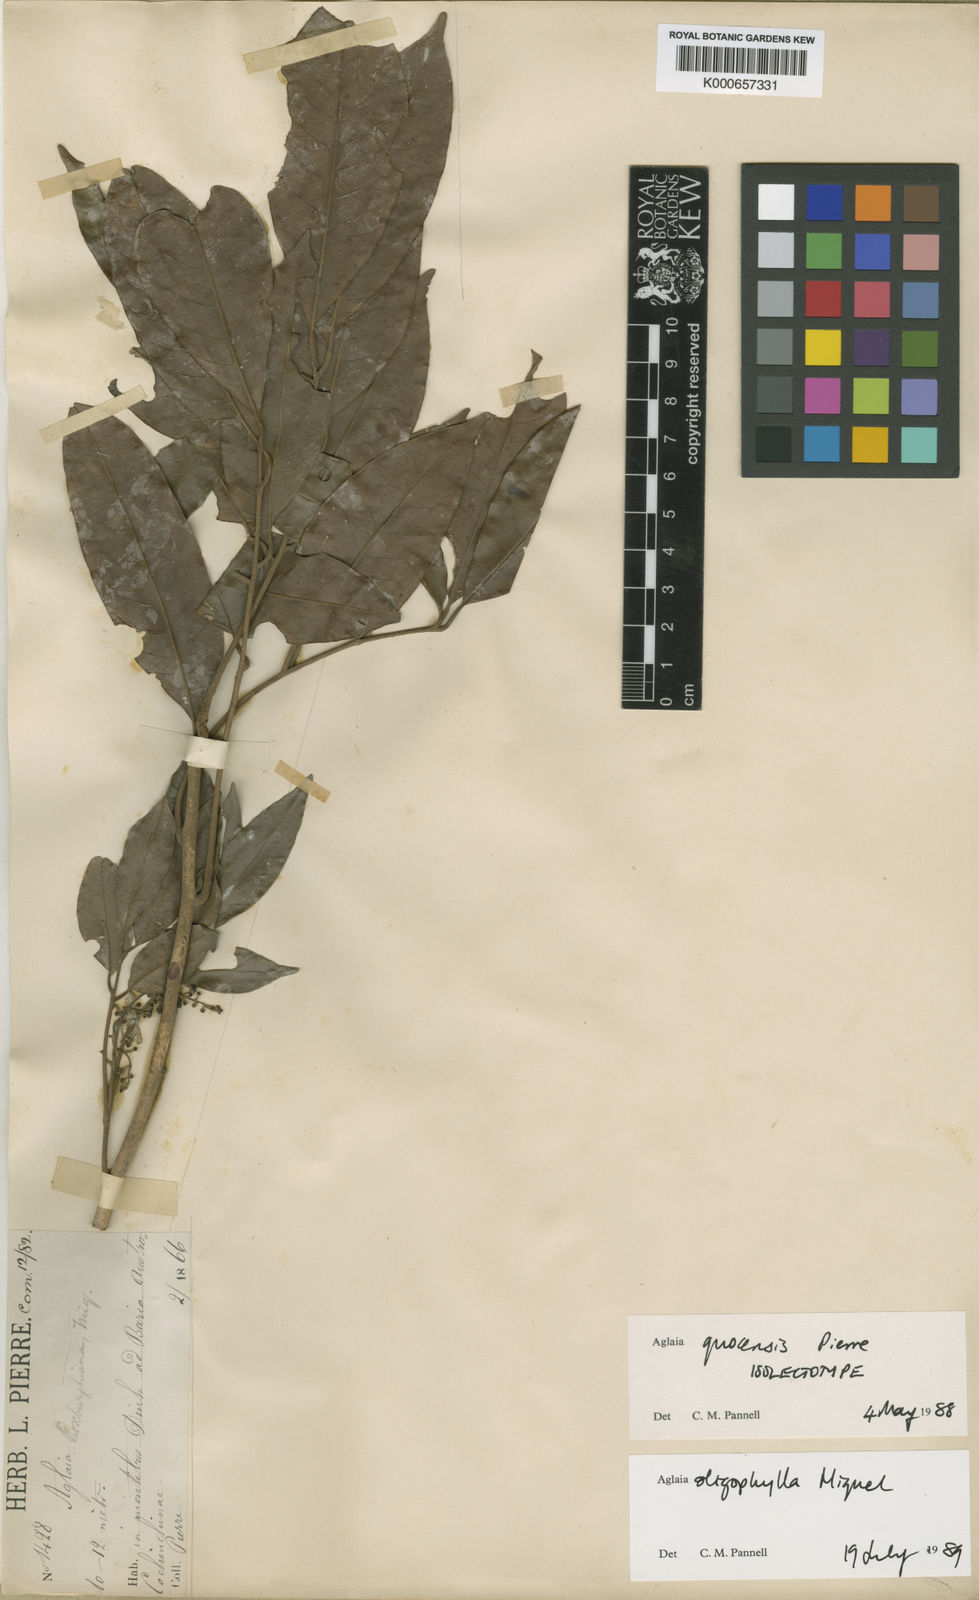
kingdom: Plantae
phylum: Tracheophyta
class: Magnoliopsida
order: Sapindales
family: Meliaceae
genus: Aglaia
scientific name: Aglaia edulis
